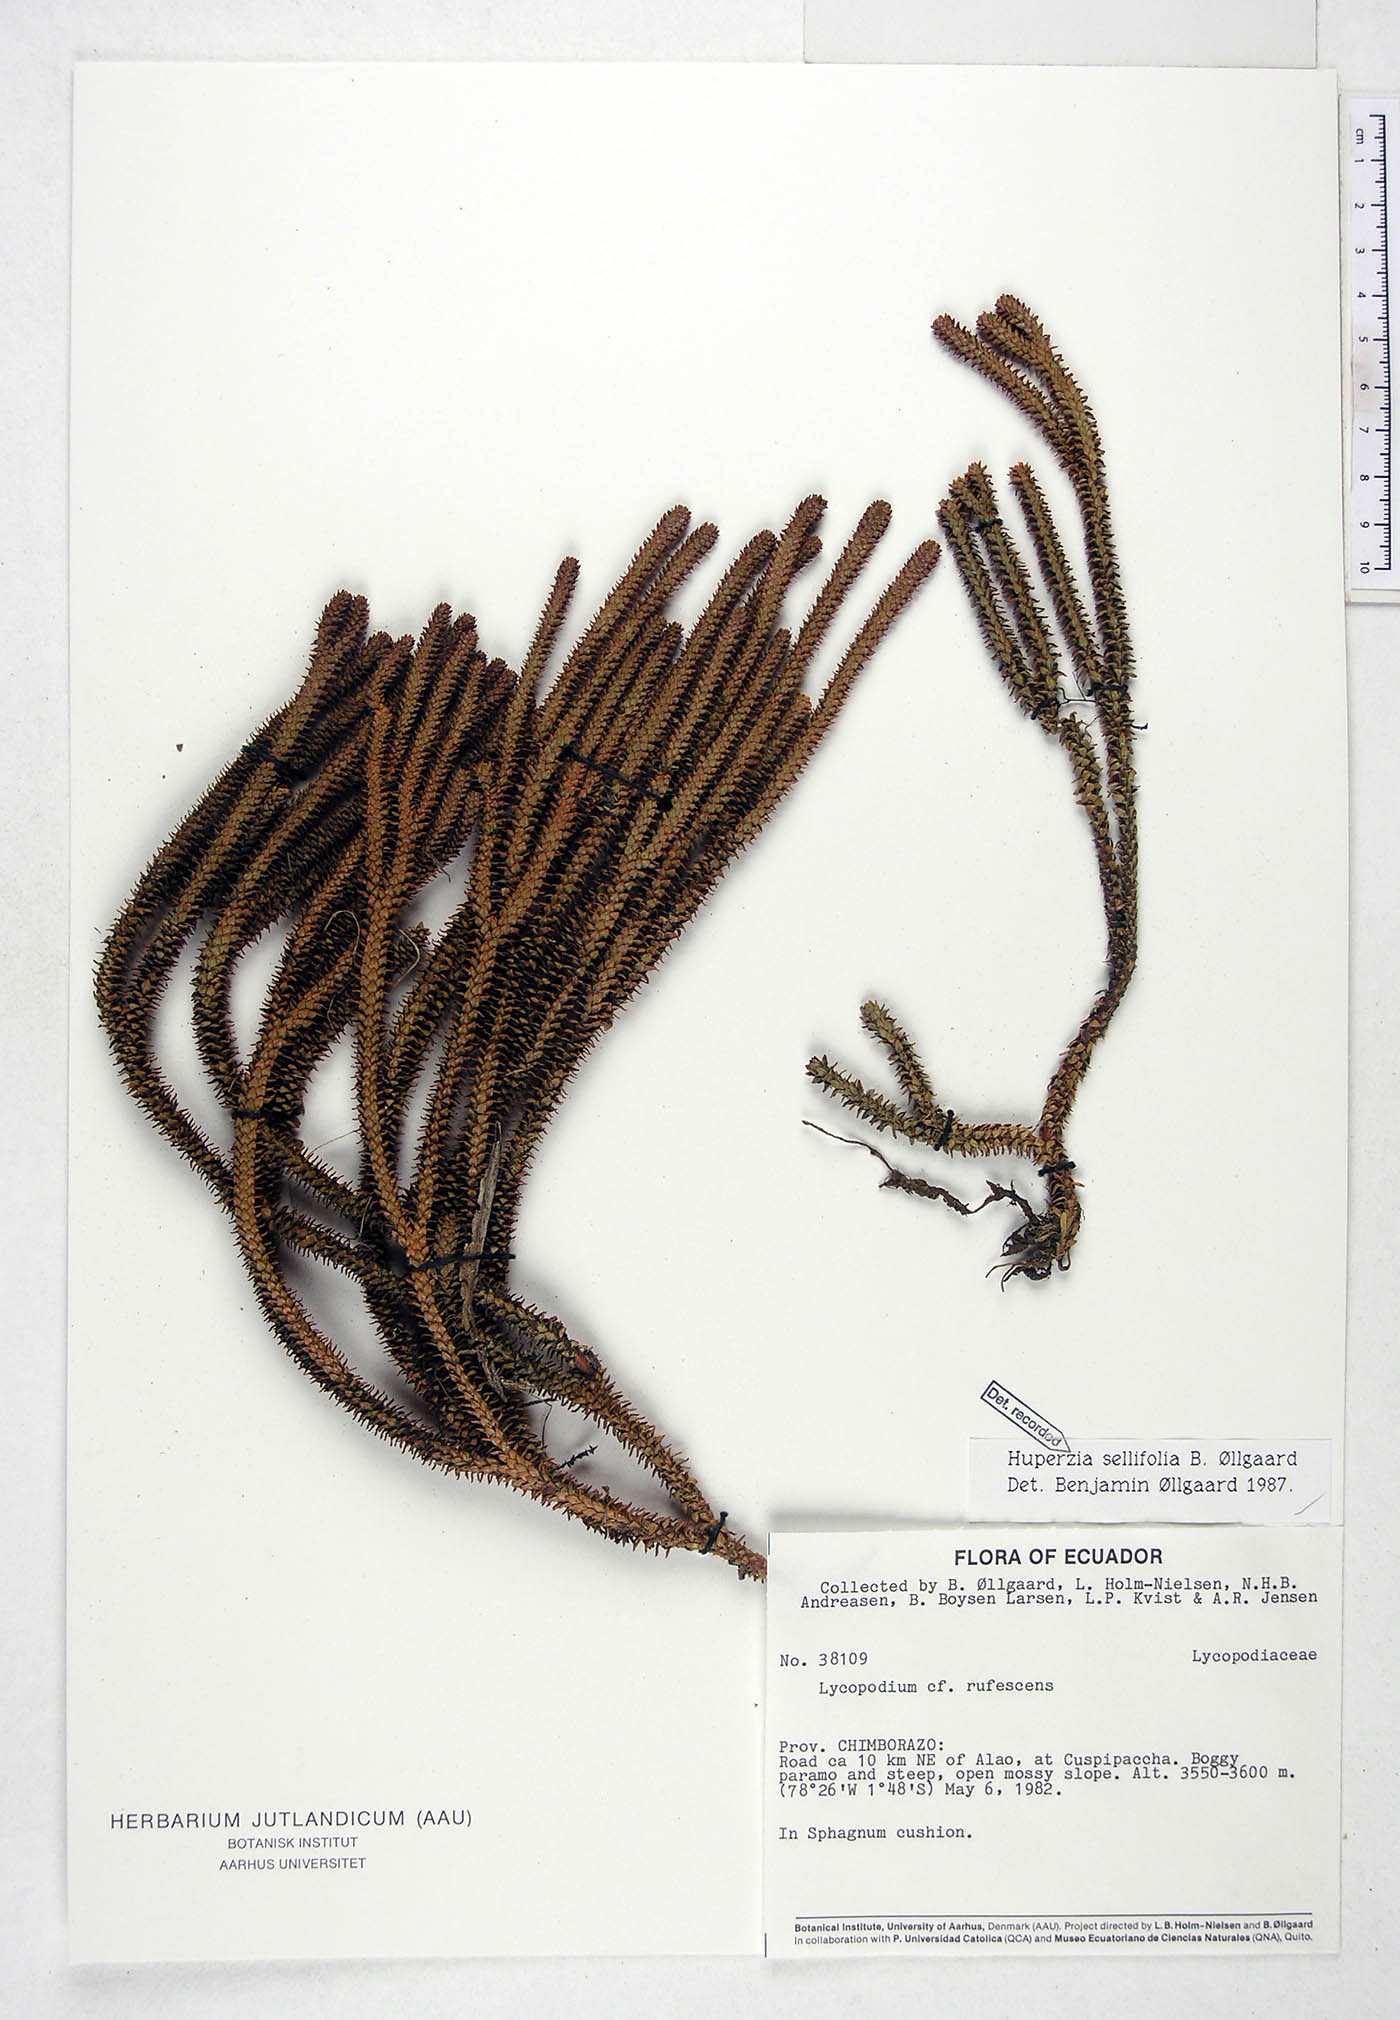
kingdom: Plantae
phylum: Tracheophyta
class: Lycopodiopsida
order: Lycopodiales
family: Lycopodiaceae
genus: Phlegmariurus
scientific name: Phlegmariurus sellifolius
